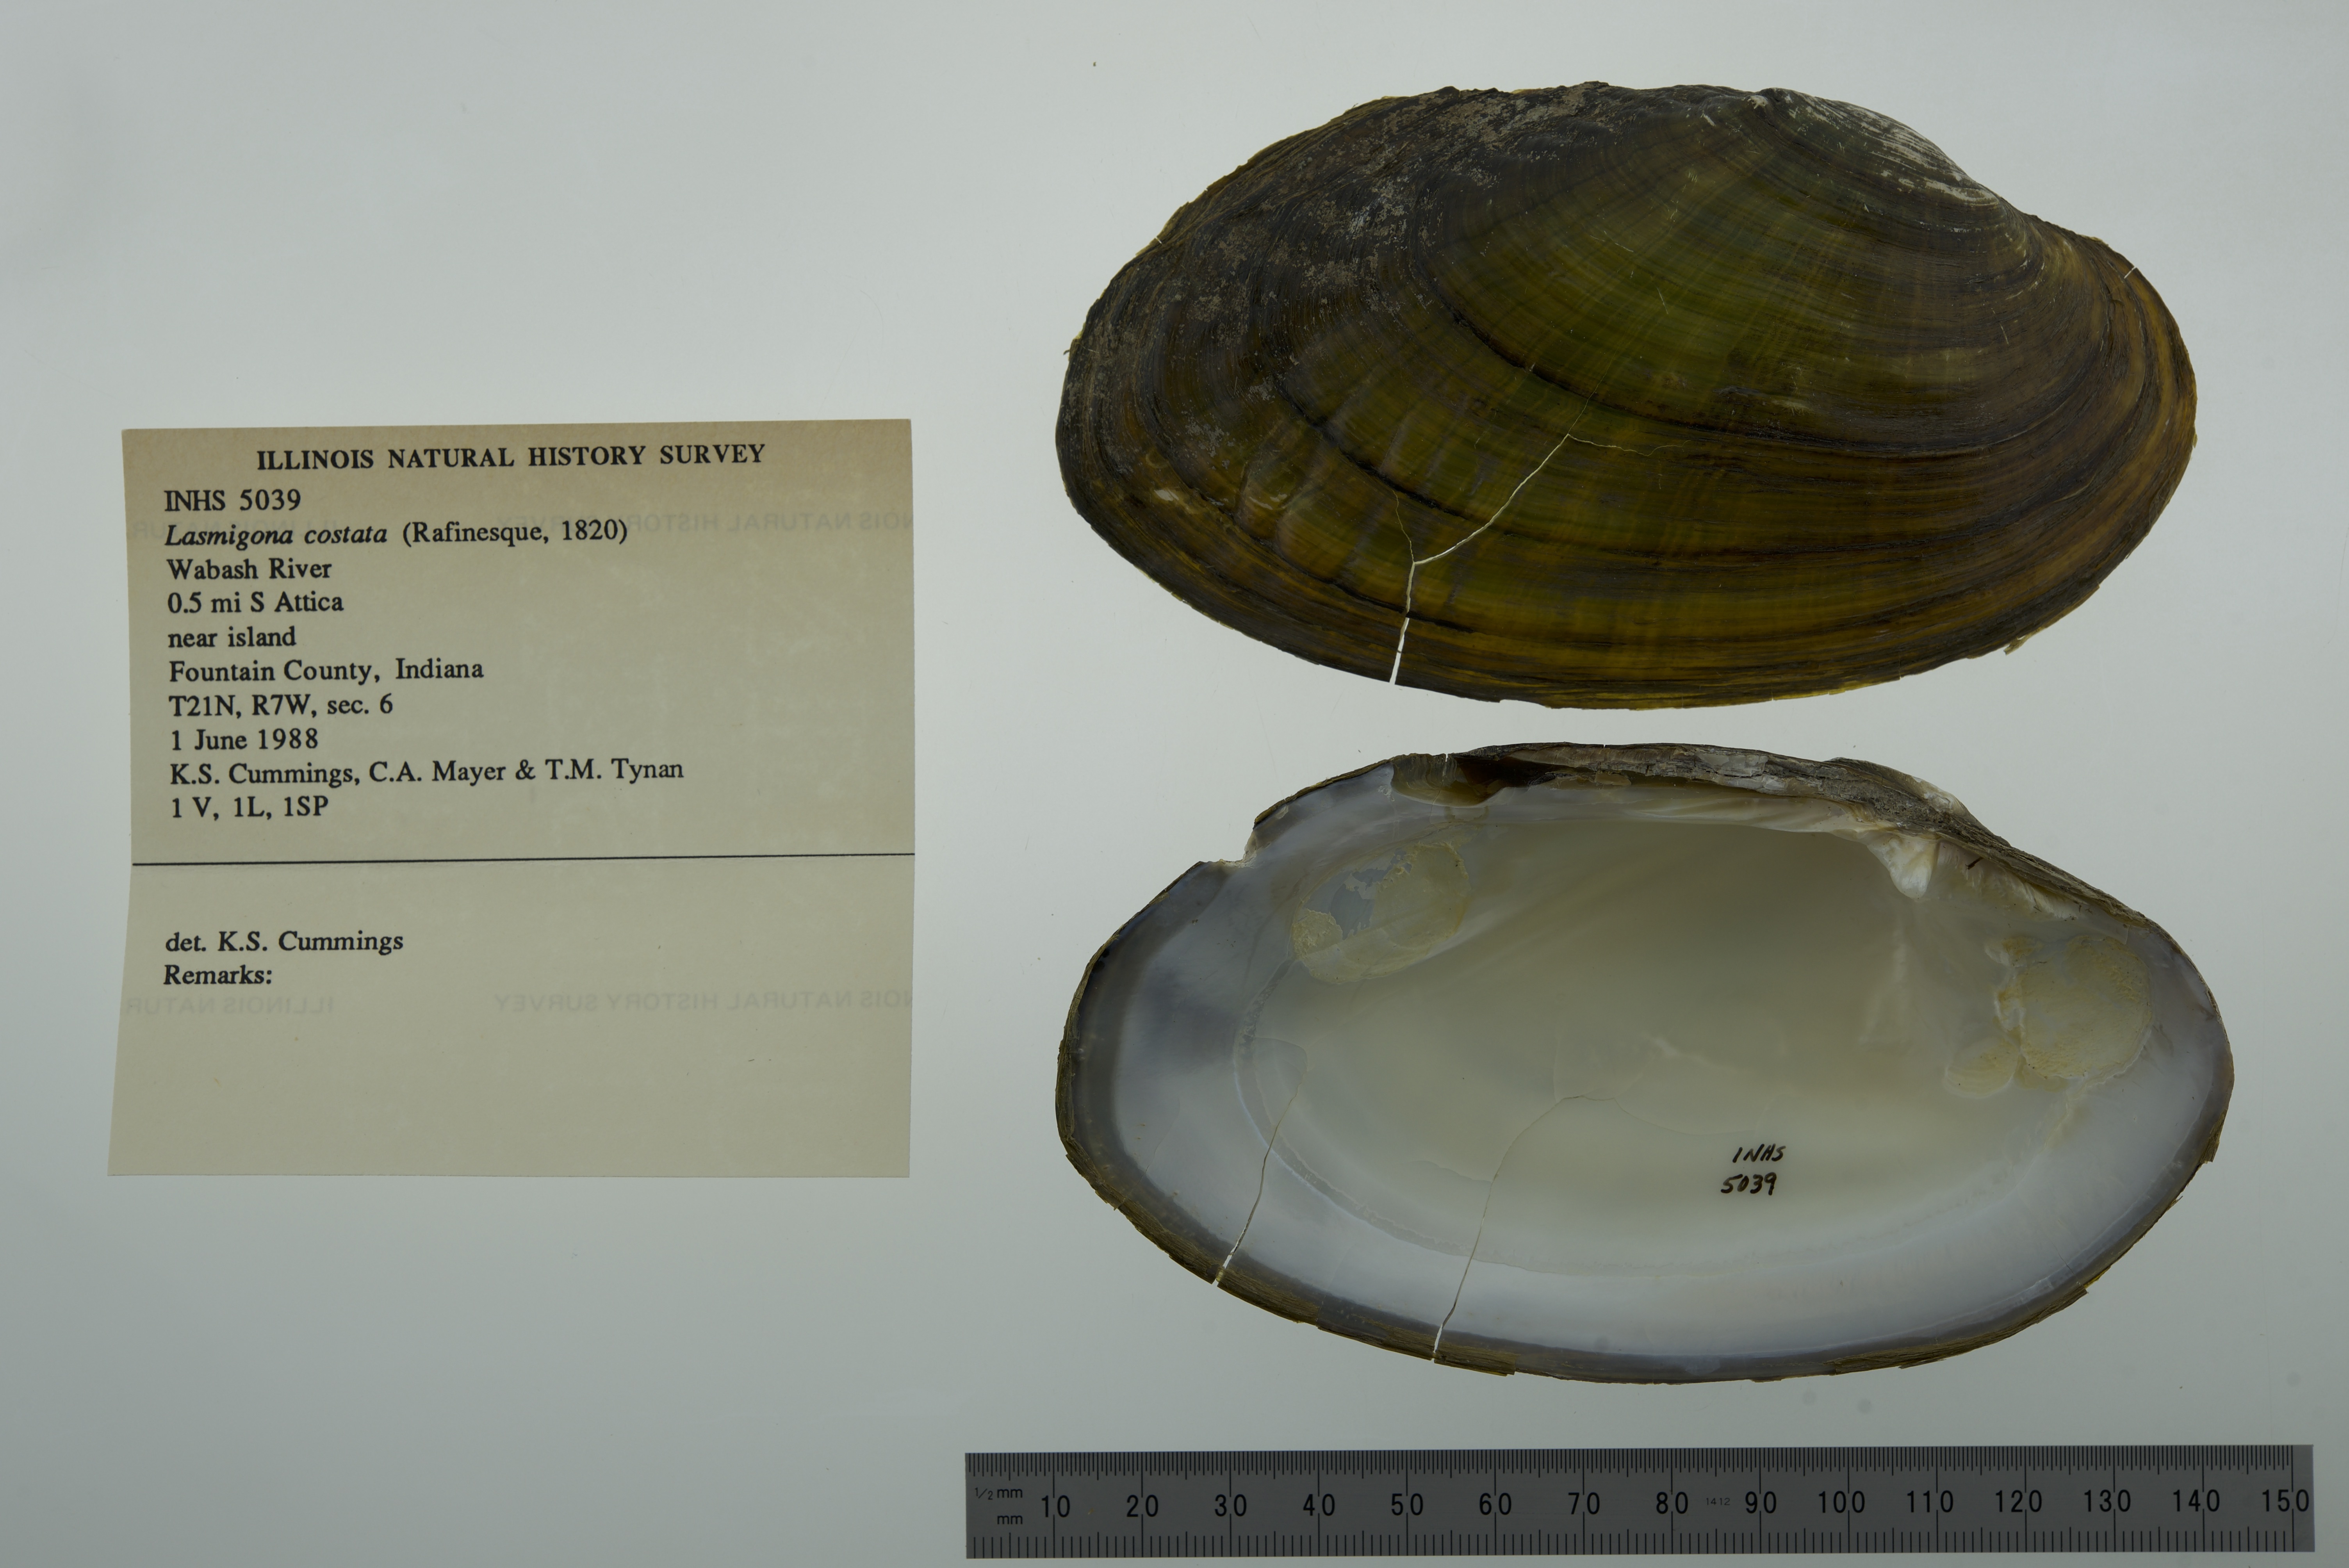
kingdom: Animalia
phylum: Mollusca
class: Bivalvia
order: Unionida
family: Unionidae
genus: Lasmigona
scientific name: Lasmigona costata
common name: Flutedshell
